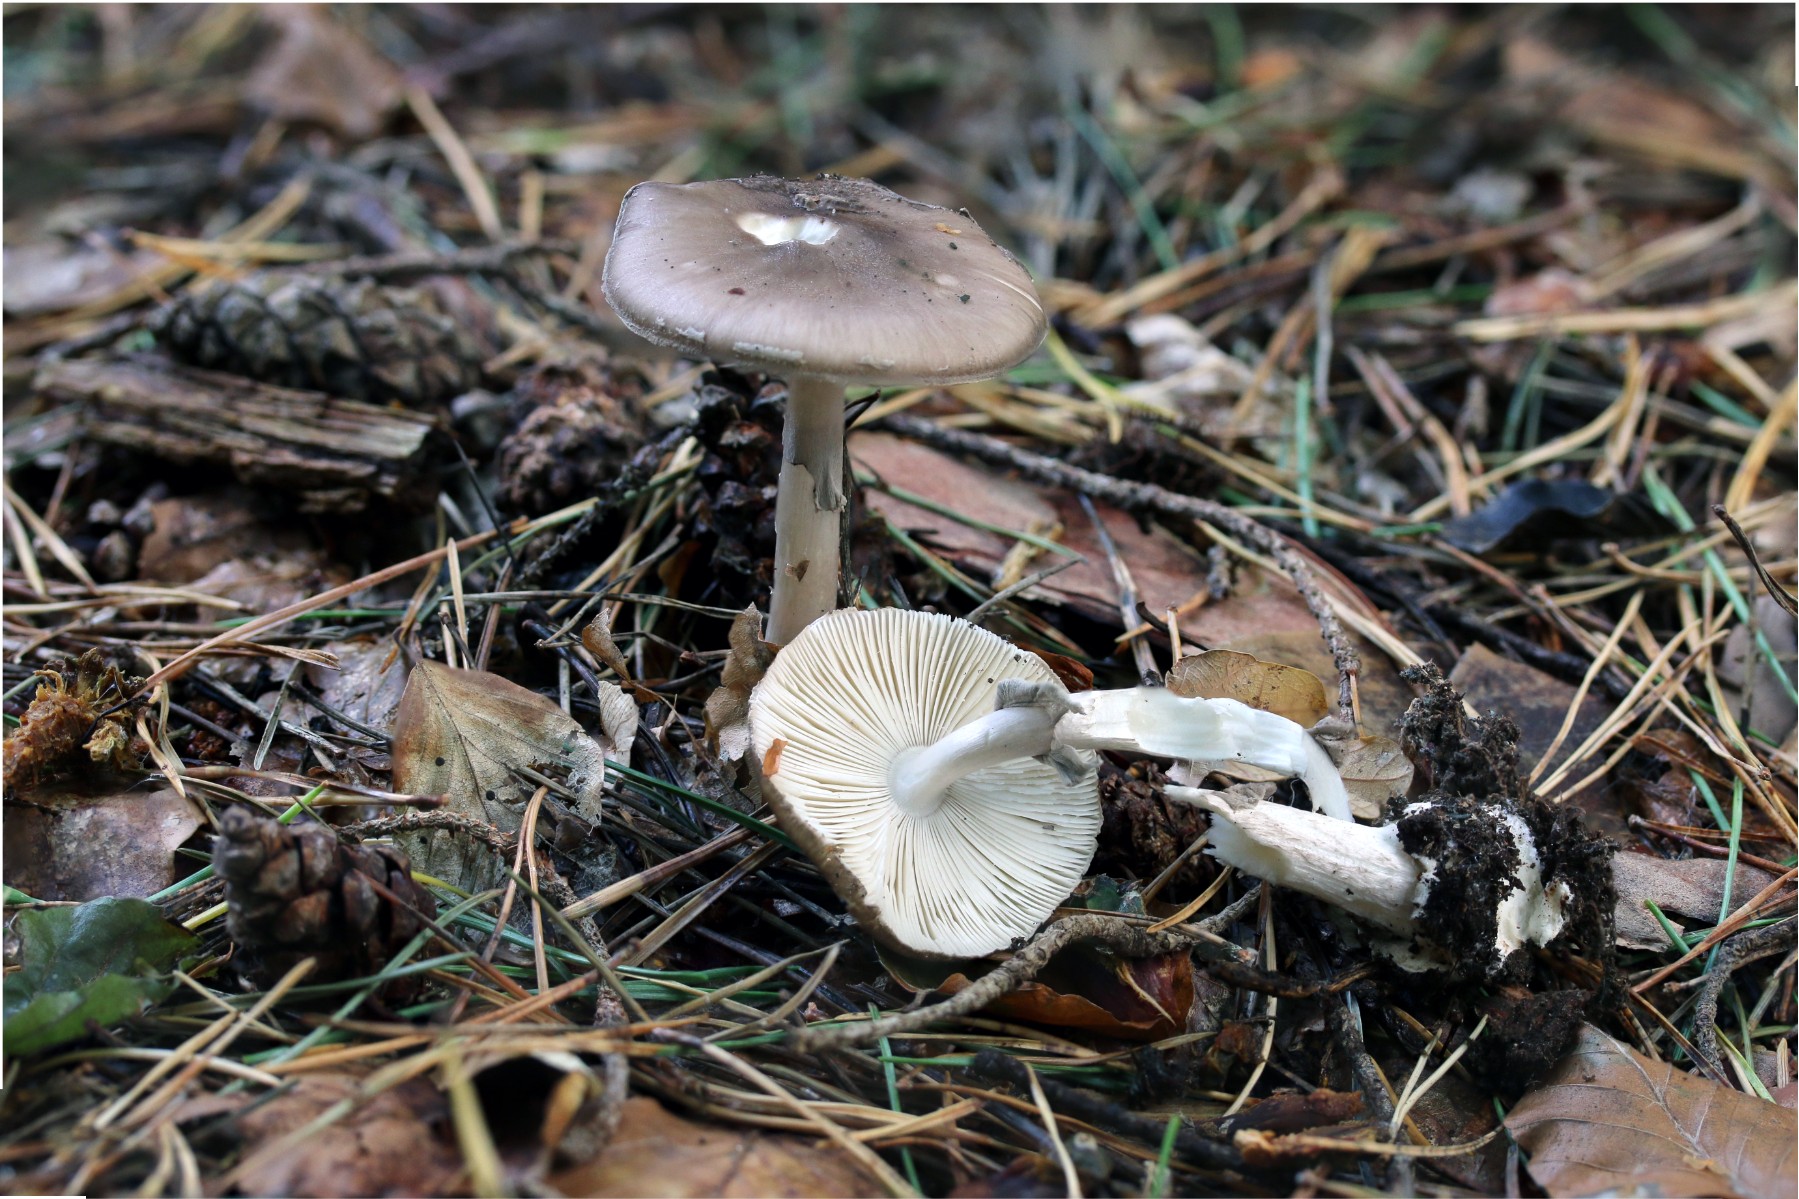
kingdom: Fungi
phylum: Basidiomycota
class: Agaricomycetes
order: Agaricales
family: Amanitaceae
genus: Amanita
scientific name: Amanita porphyria
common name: porfyr-fluesvamp
